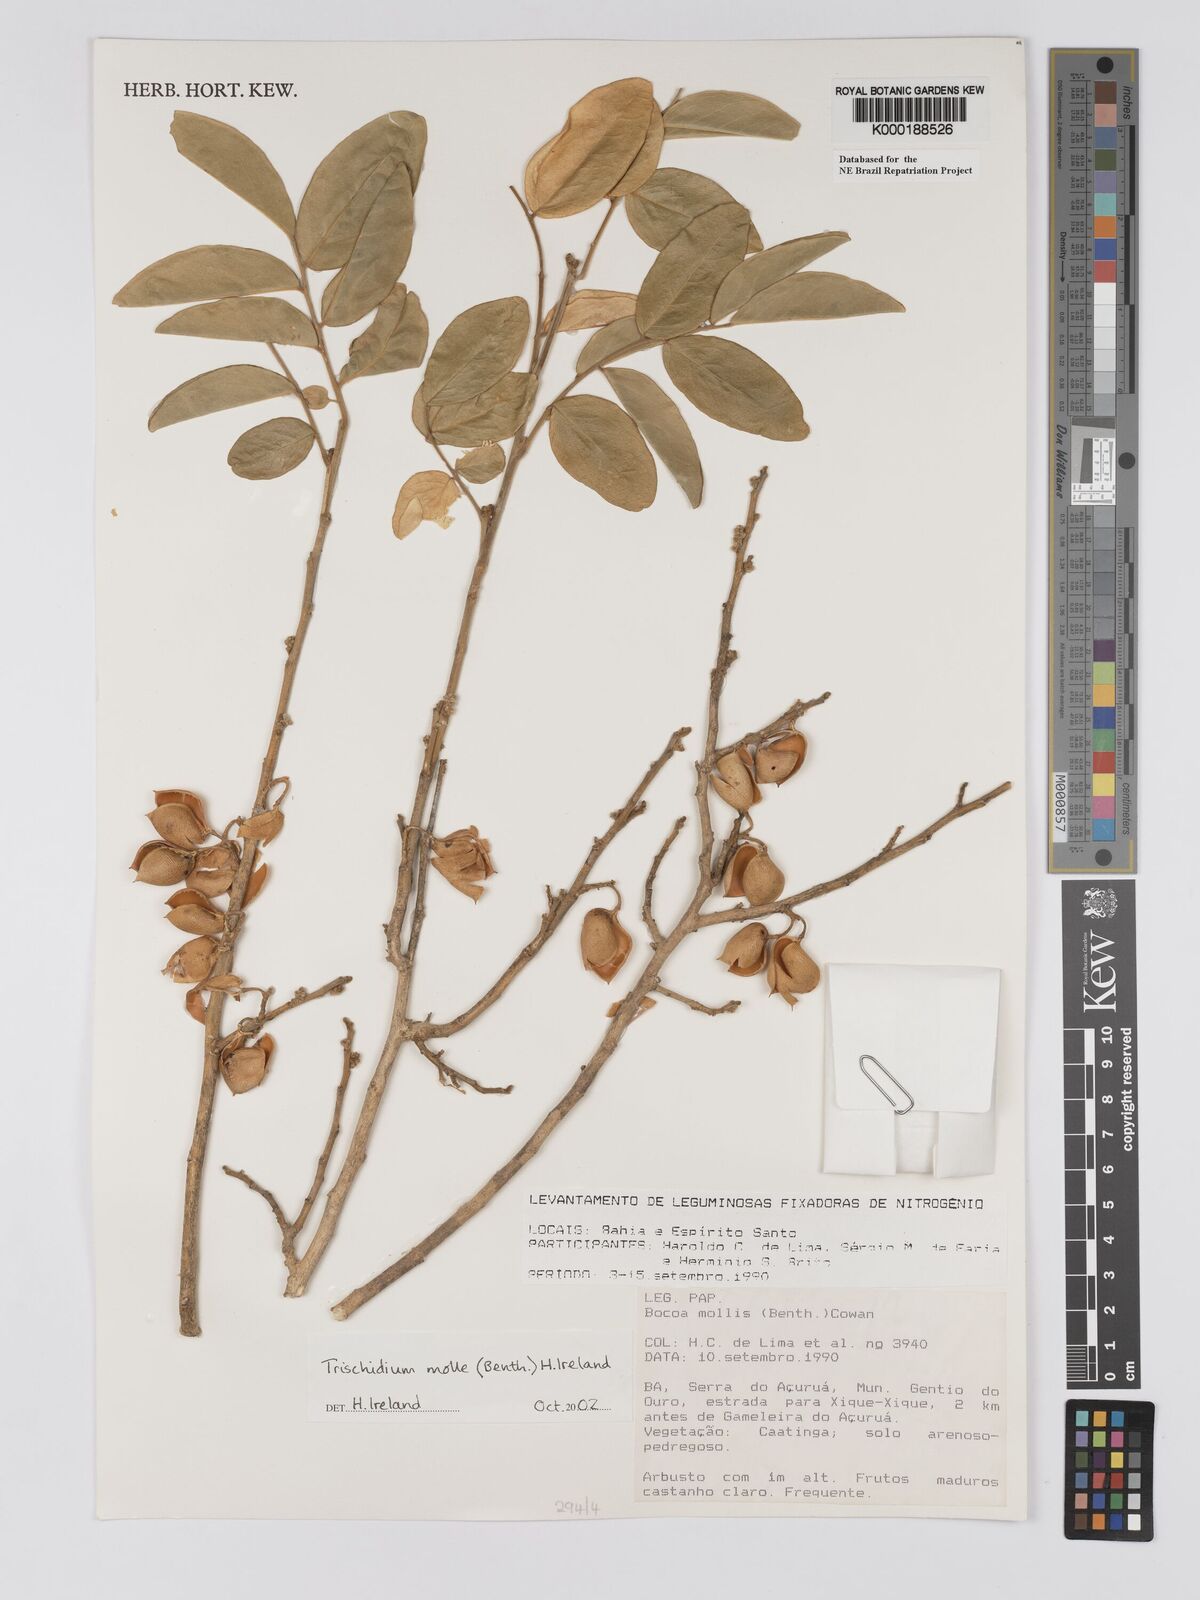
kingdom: Plantae
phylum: Tracheophyta
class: Magnoliopsida
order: Fabales
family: Fabaceae
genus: Trischidium
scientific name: Trischidium
